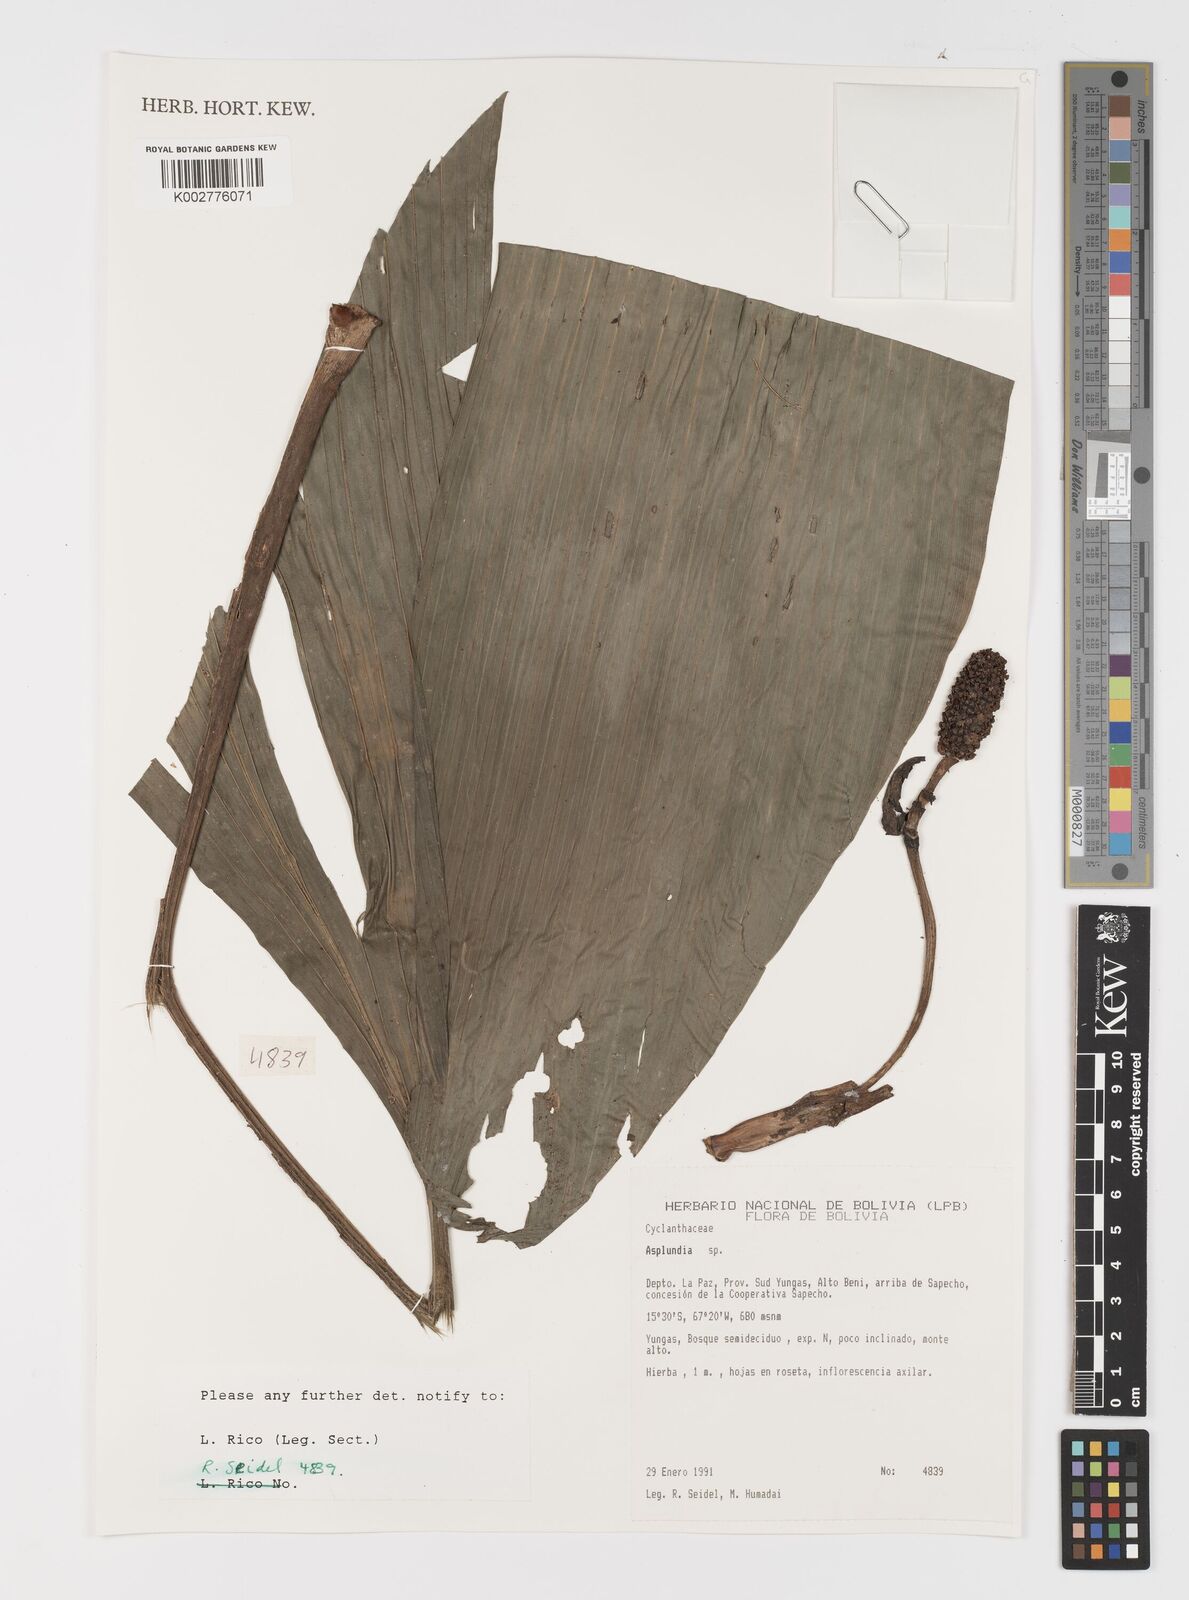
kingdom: Plantae
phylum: Tracheophyta
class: Liliopsida
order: Pandanales
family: Cyclanthaceae
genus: Asplundia
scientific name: Asplundia
